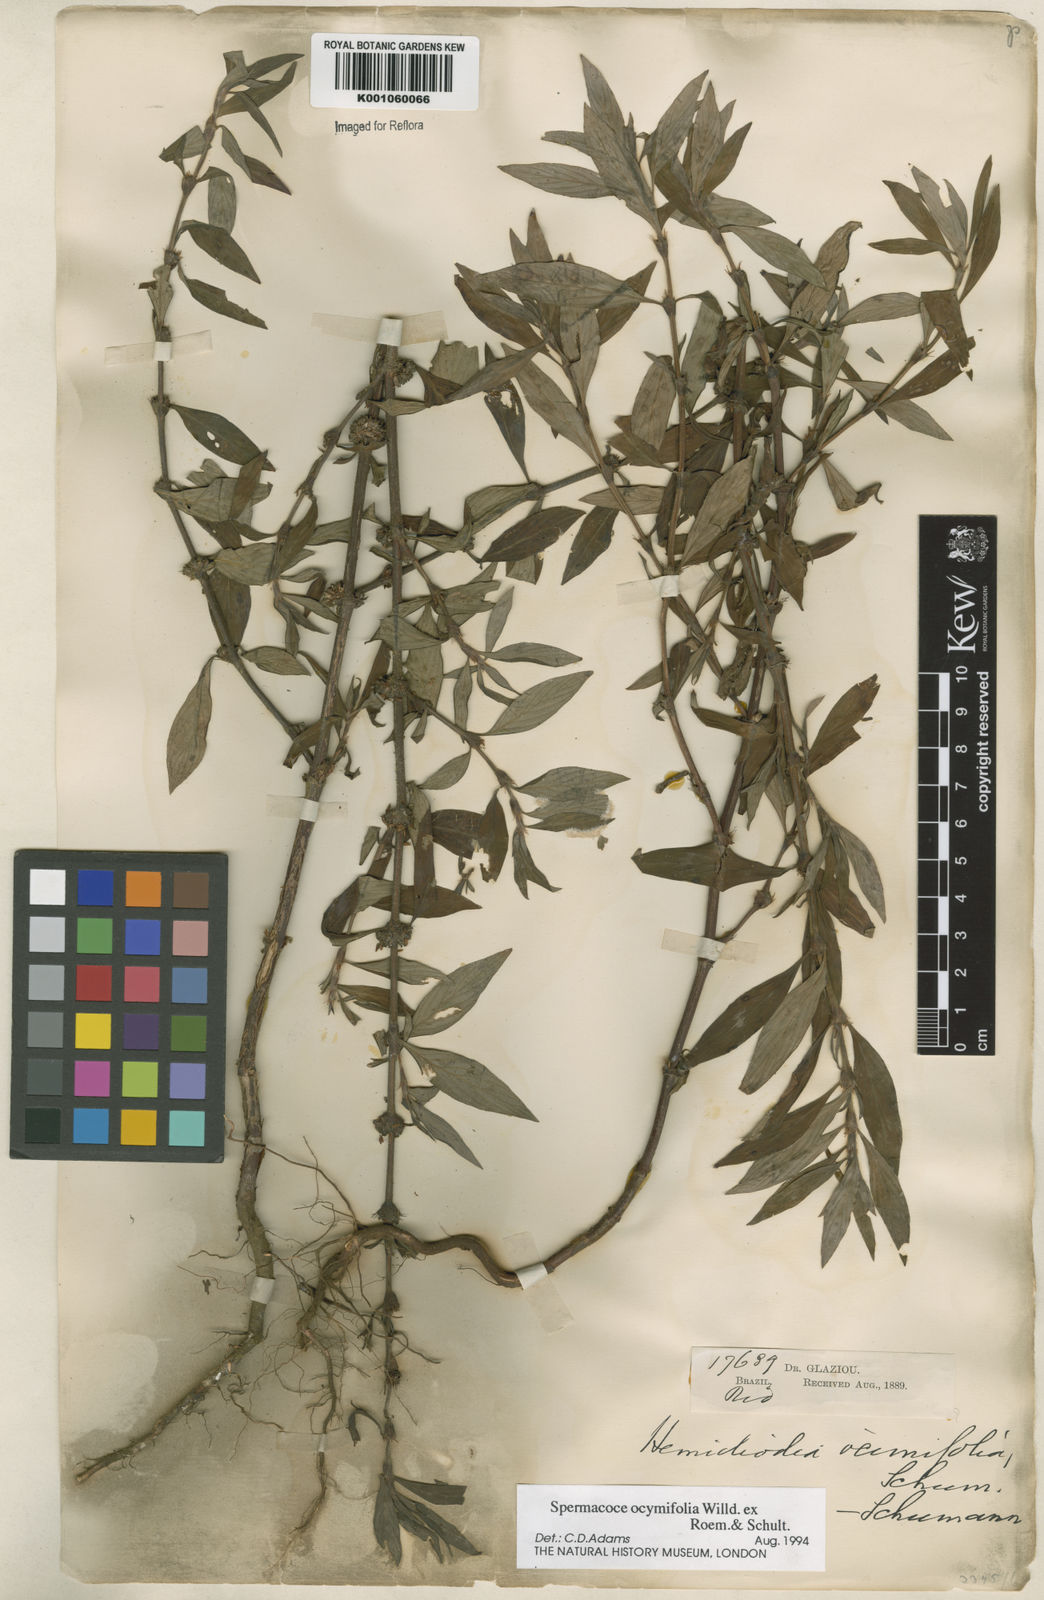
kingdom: Plantae
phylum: Tracheophyta
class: Magnoliopsida
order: Gentianales
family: Rubiaceae
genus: Spermacoce
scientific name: Spermacoce
